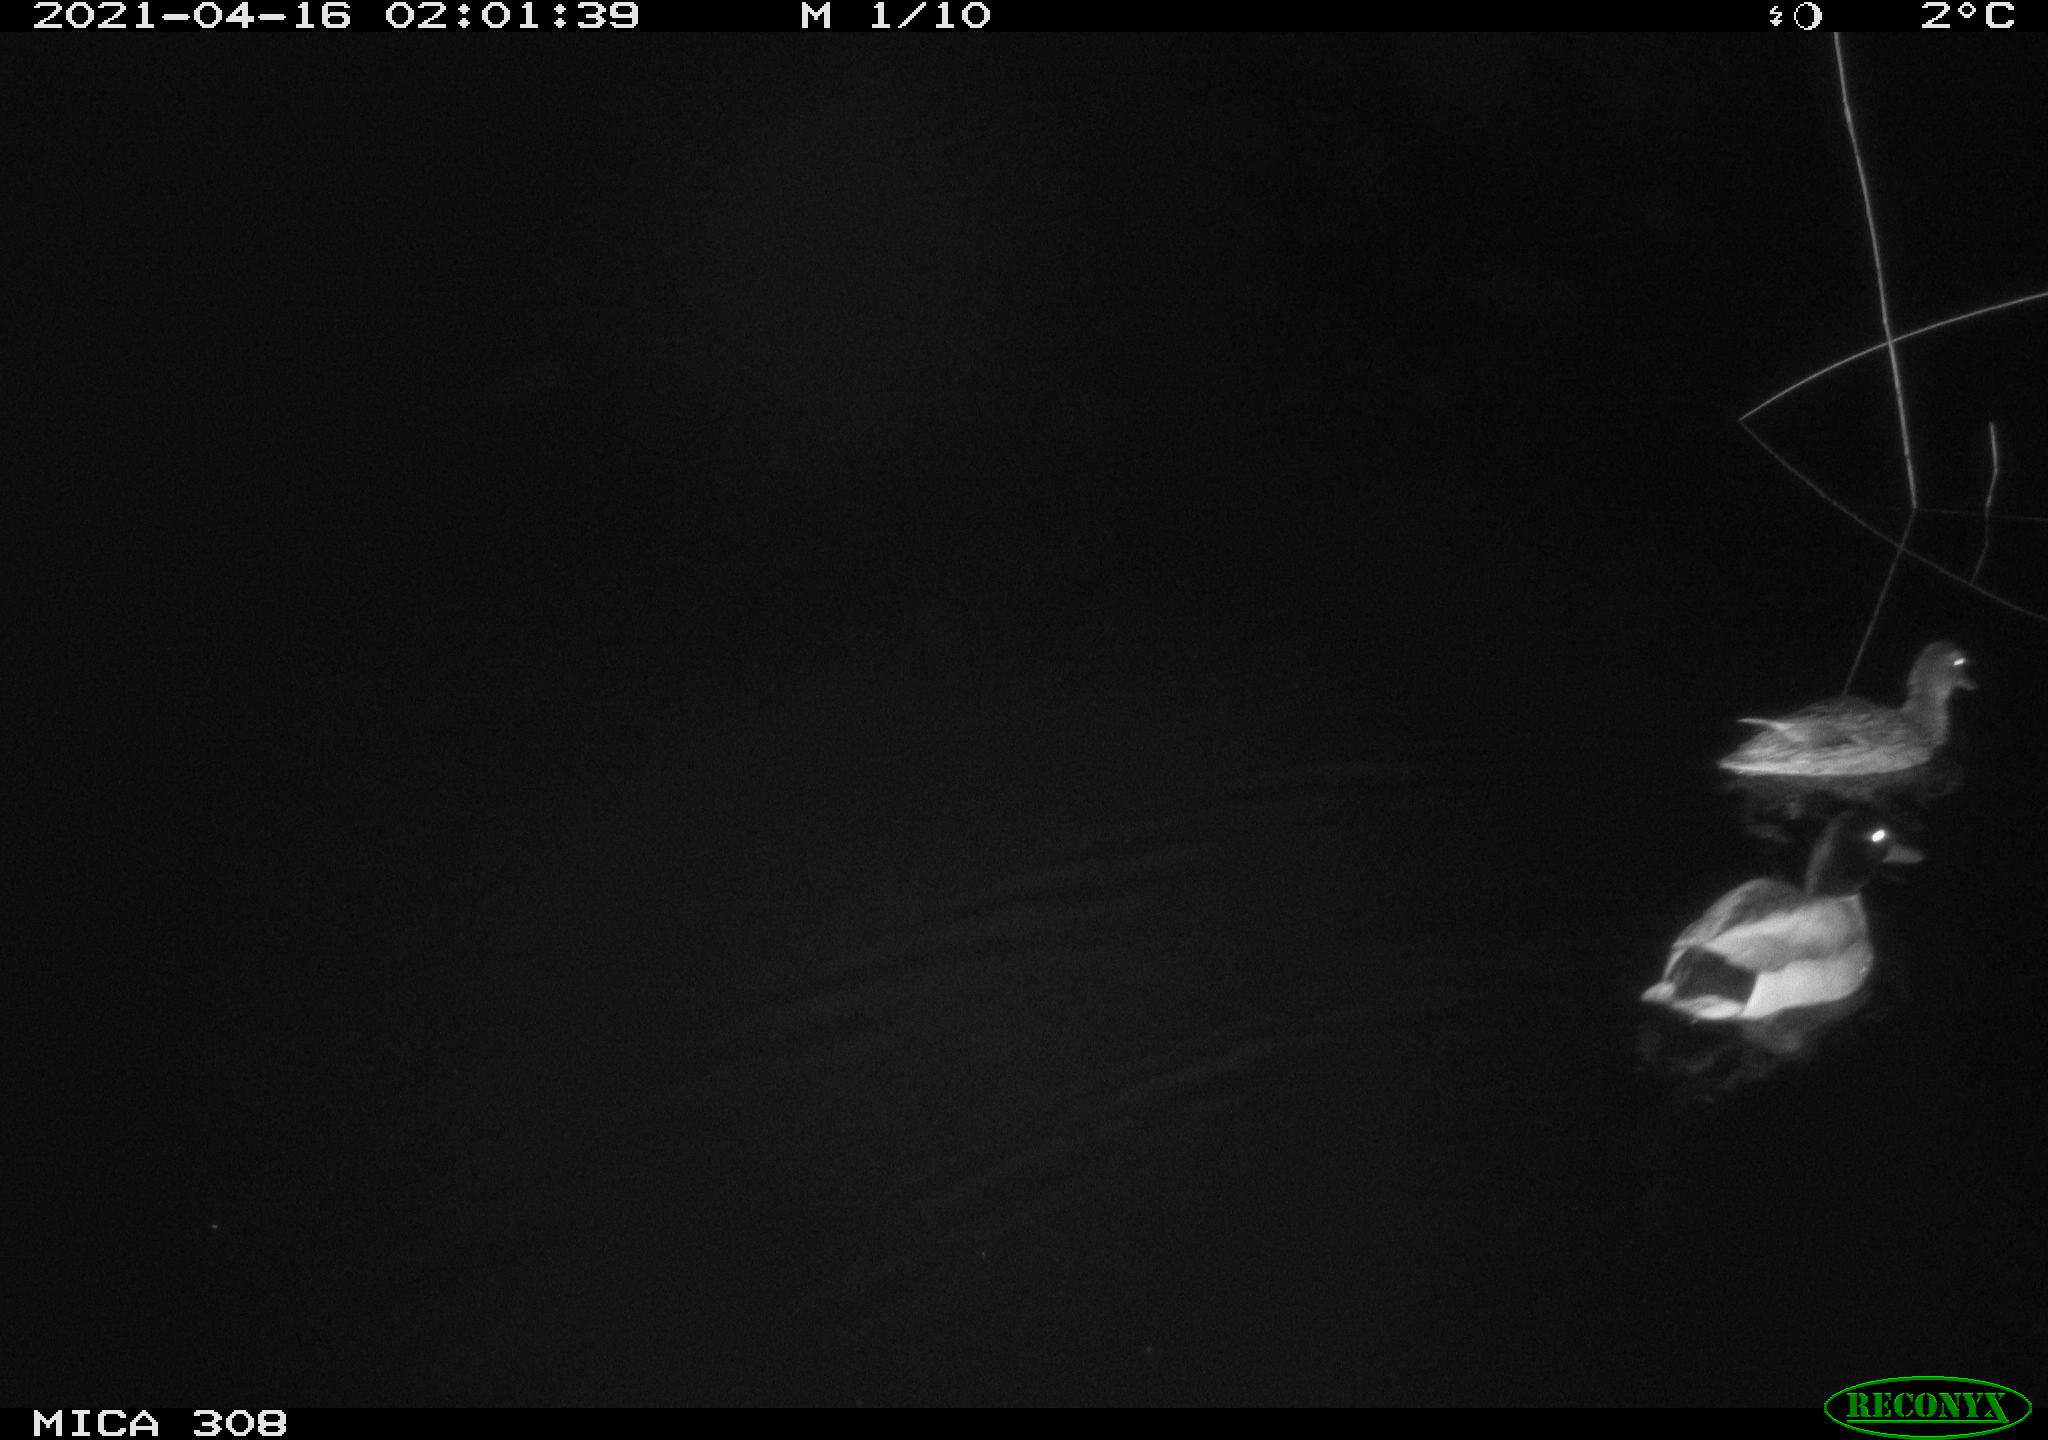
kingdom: Animalia
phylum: Chordata
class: Aves
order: Anseriformes
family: Anatidae
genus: Anas
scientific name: Anas platyrhynchos
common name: Mallard
